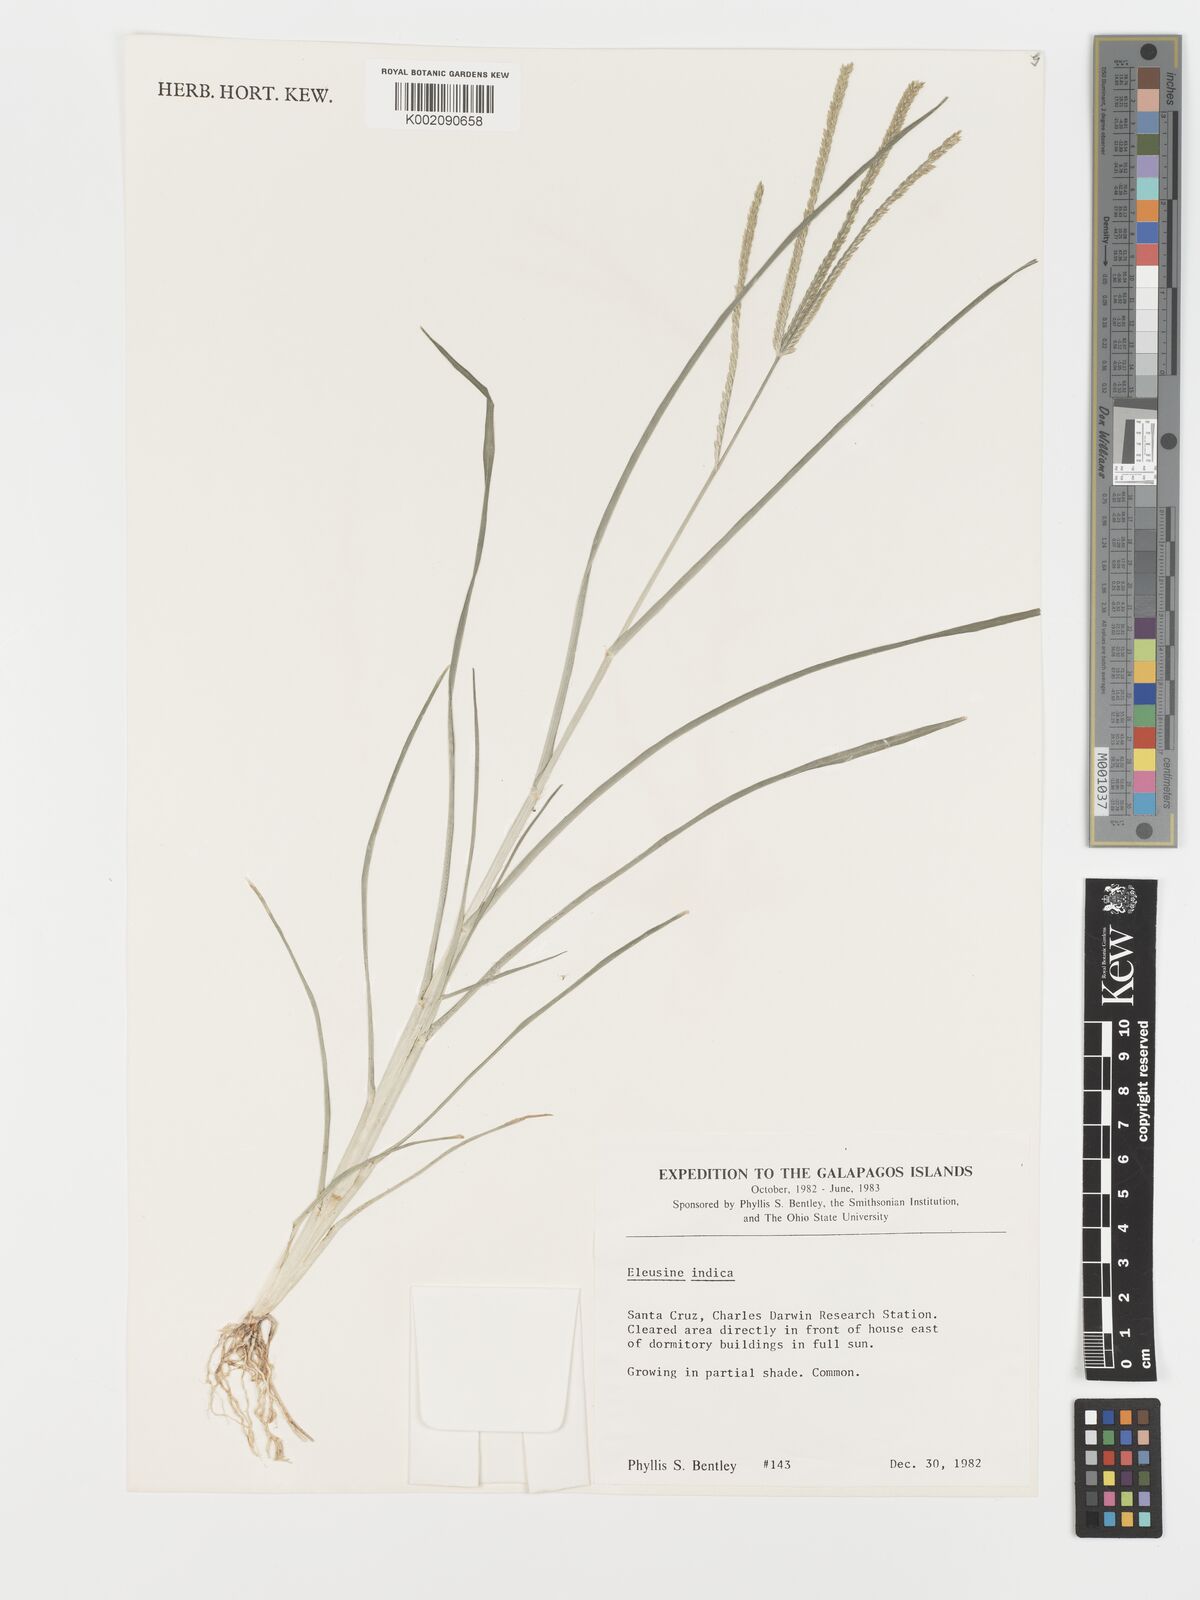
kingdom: Plantae
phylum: Tracheophyta
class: Liliopsida
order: Poales
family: Poaceae
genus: Eleusine
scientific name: Eleusine indica
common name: Yard-grass
